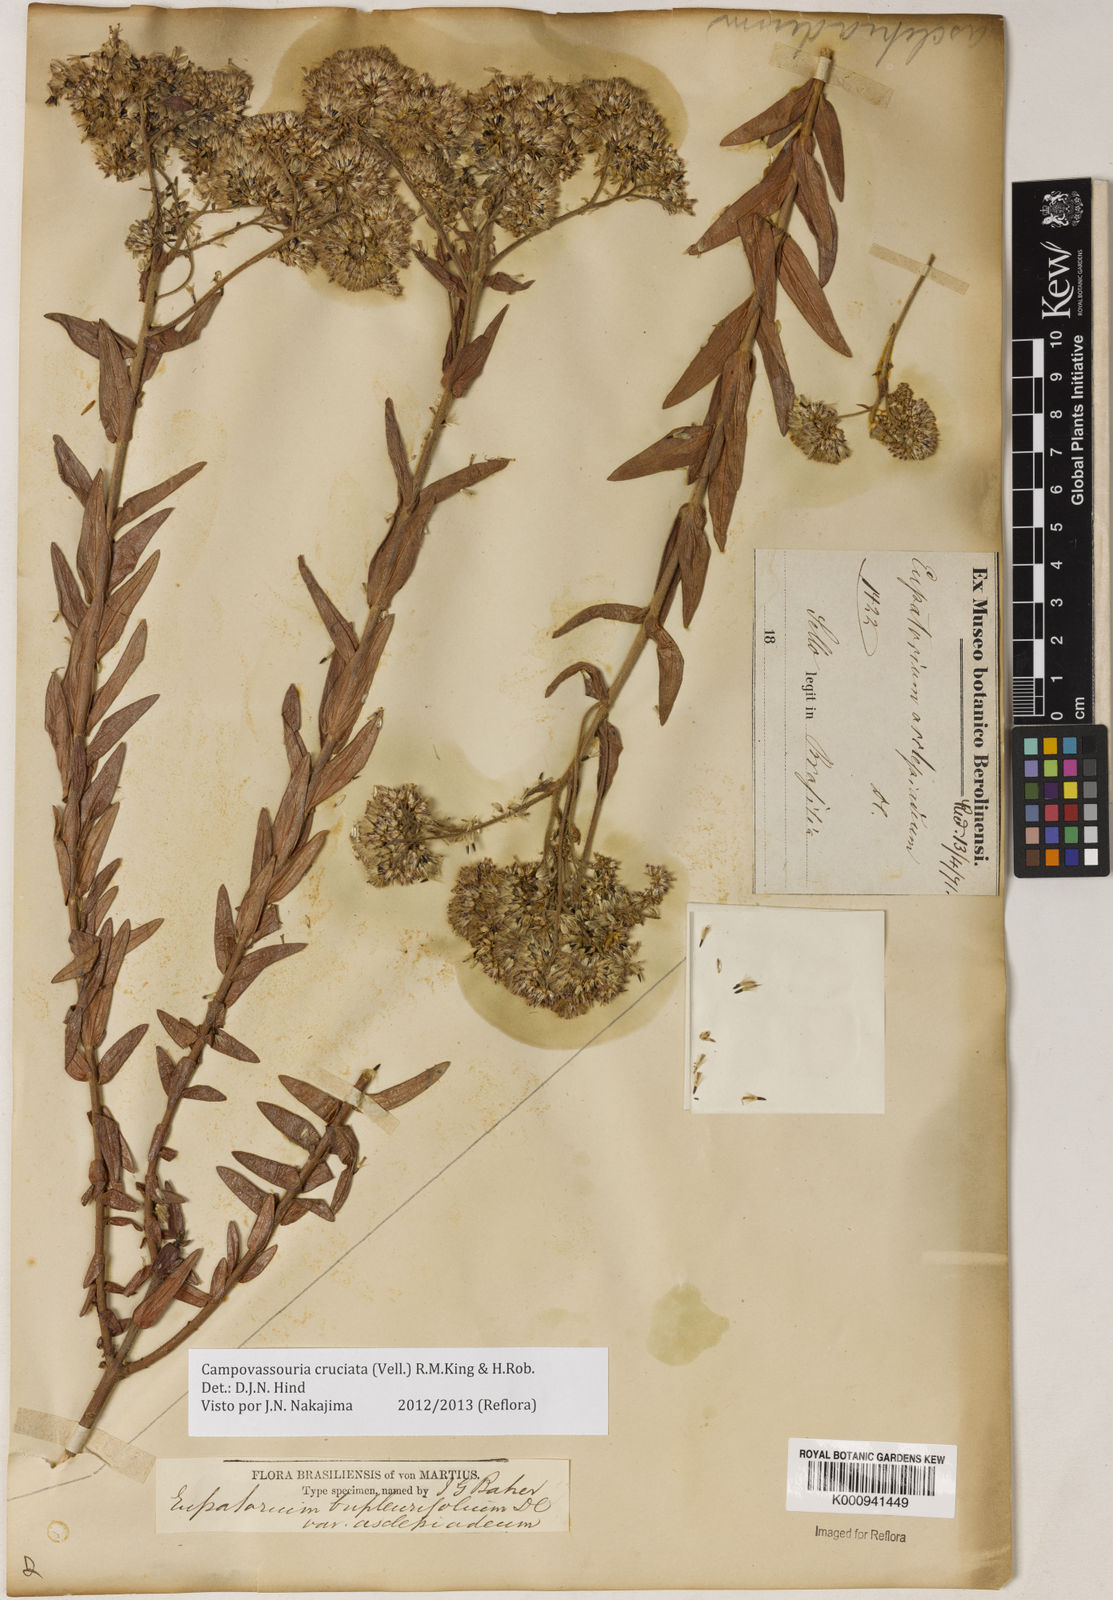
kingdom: Plantae
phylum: Tracheophyta
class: Magnoliopsida
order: Asterales
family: Asteraceae
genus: Campovassouria
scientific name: Campovassouria cruciata
